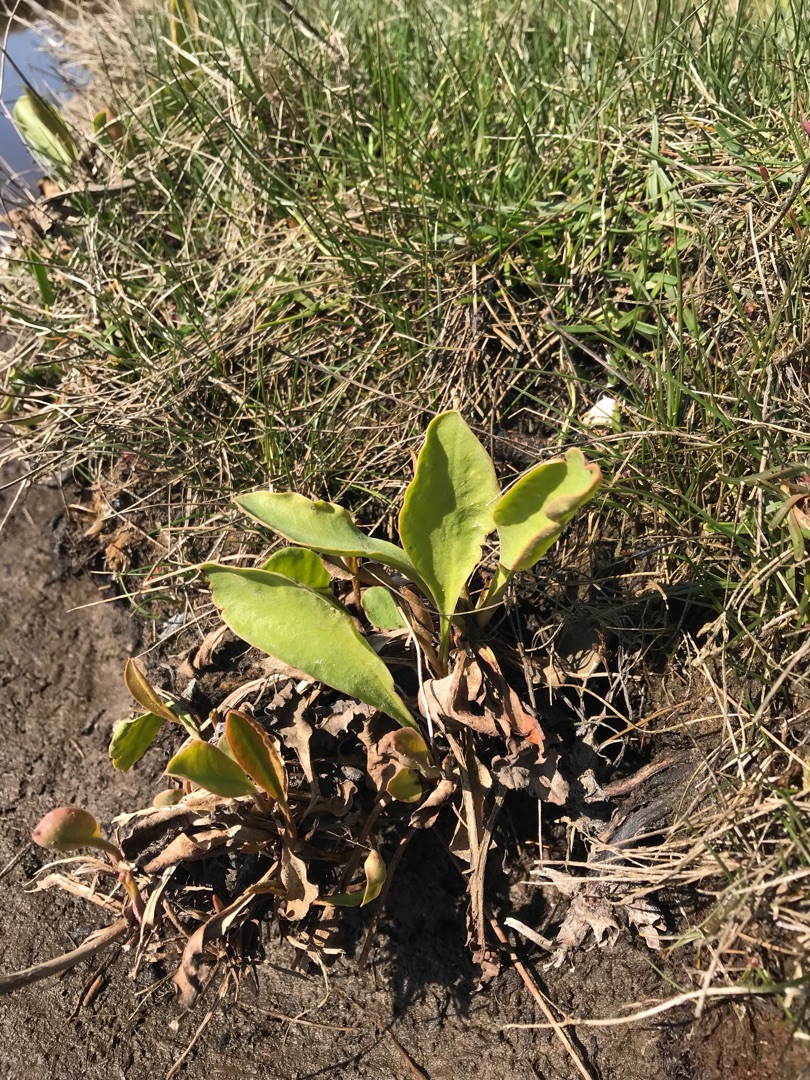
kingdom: Plantae
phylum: Tracheophyta
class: Magnoliopsida
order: Caryophyllales
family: Plumbaginaceae
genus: Limonium
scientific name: Limonium vulgare
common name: Tætblomstret hindebæger
